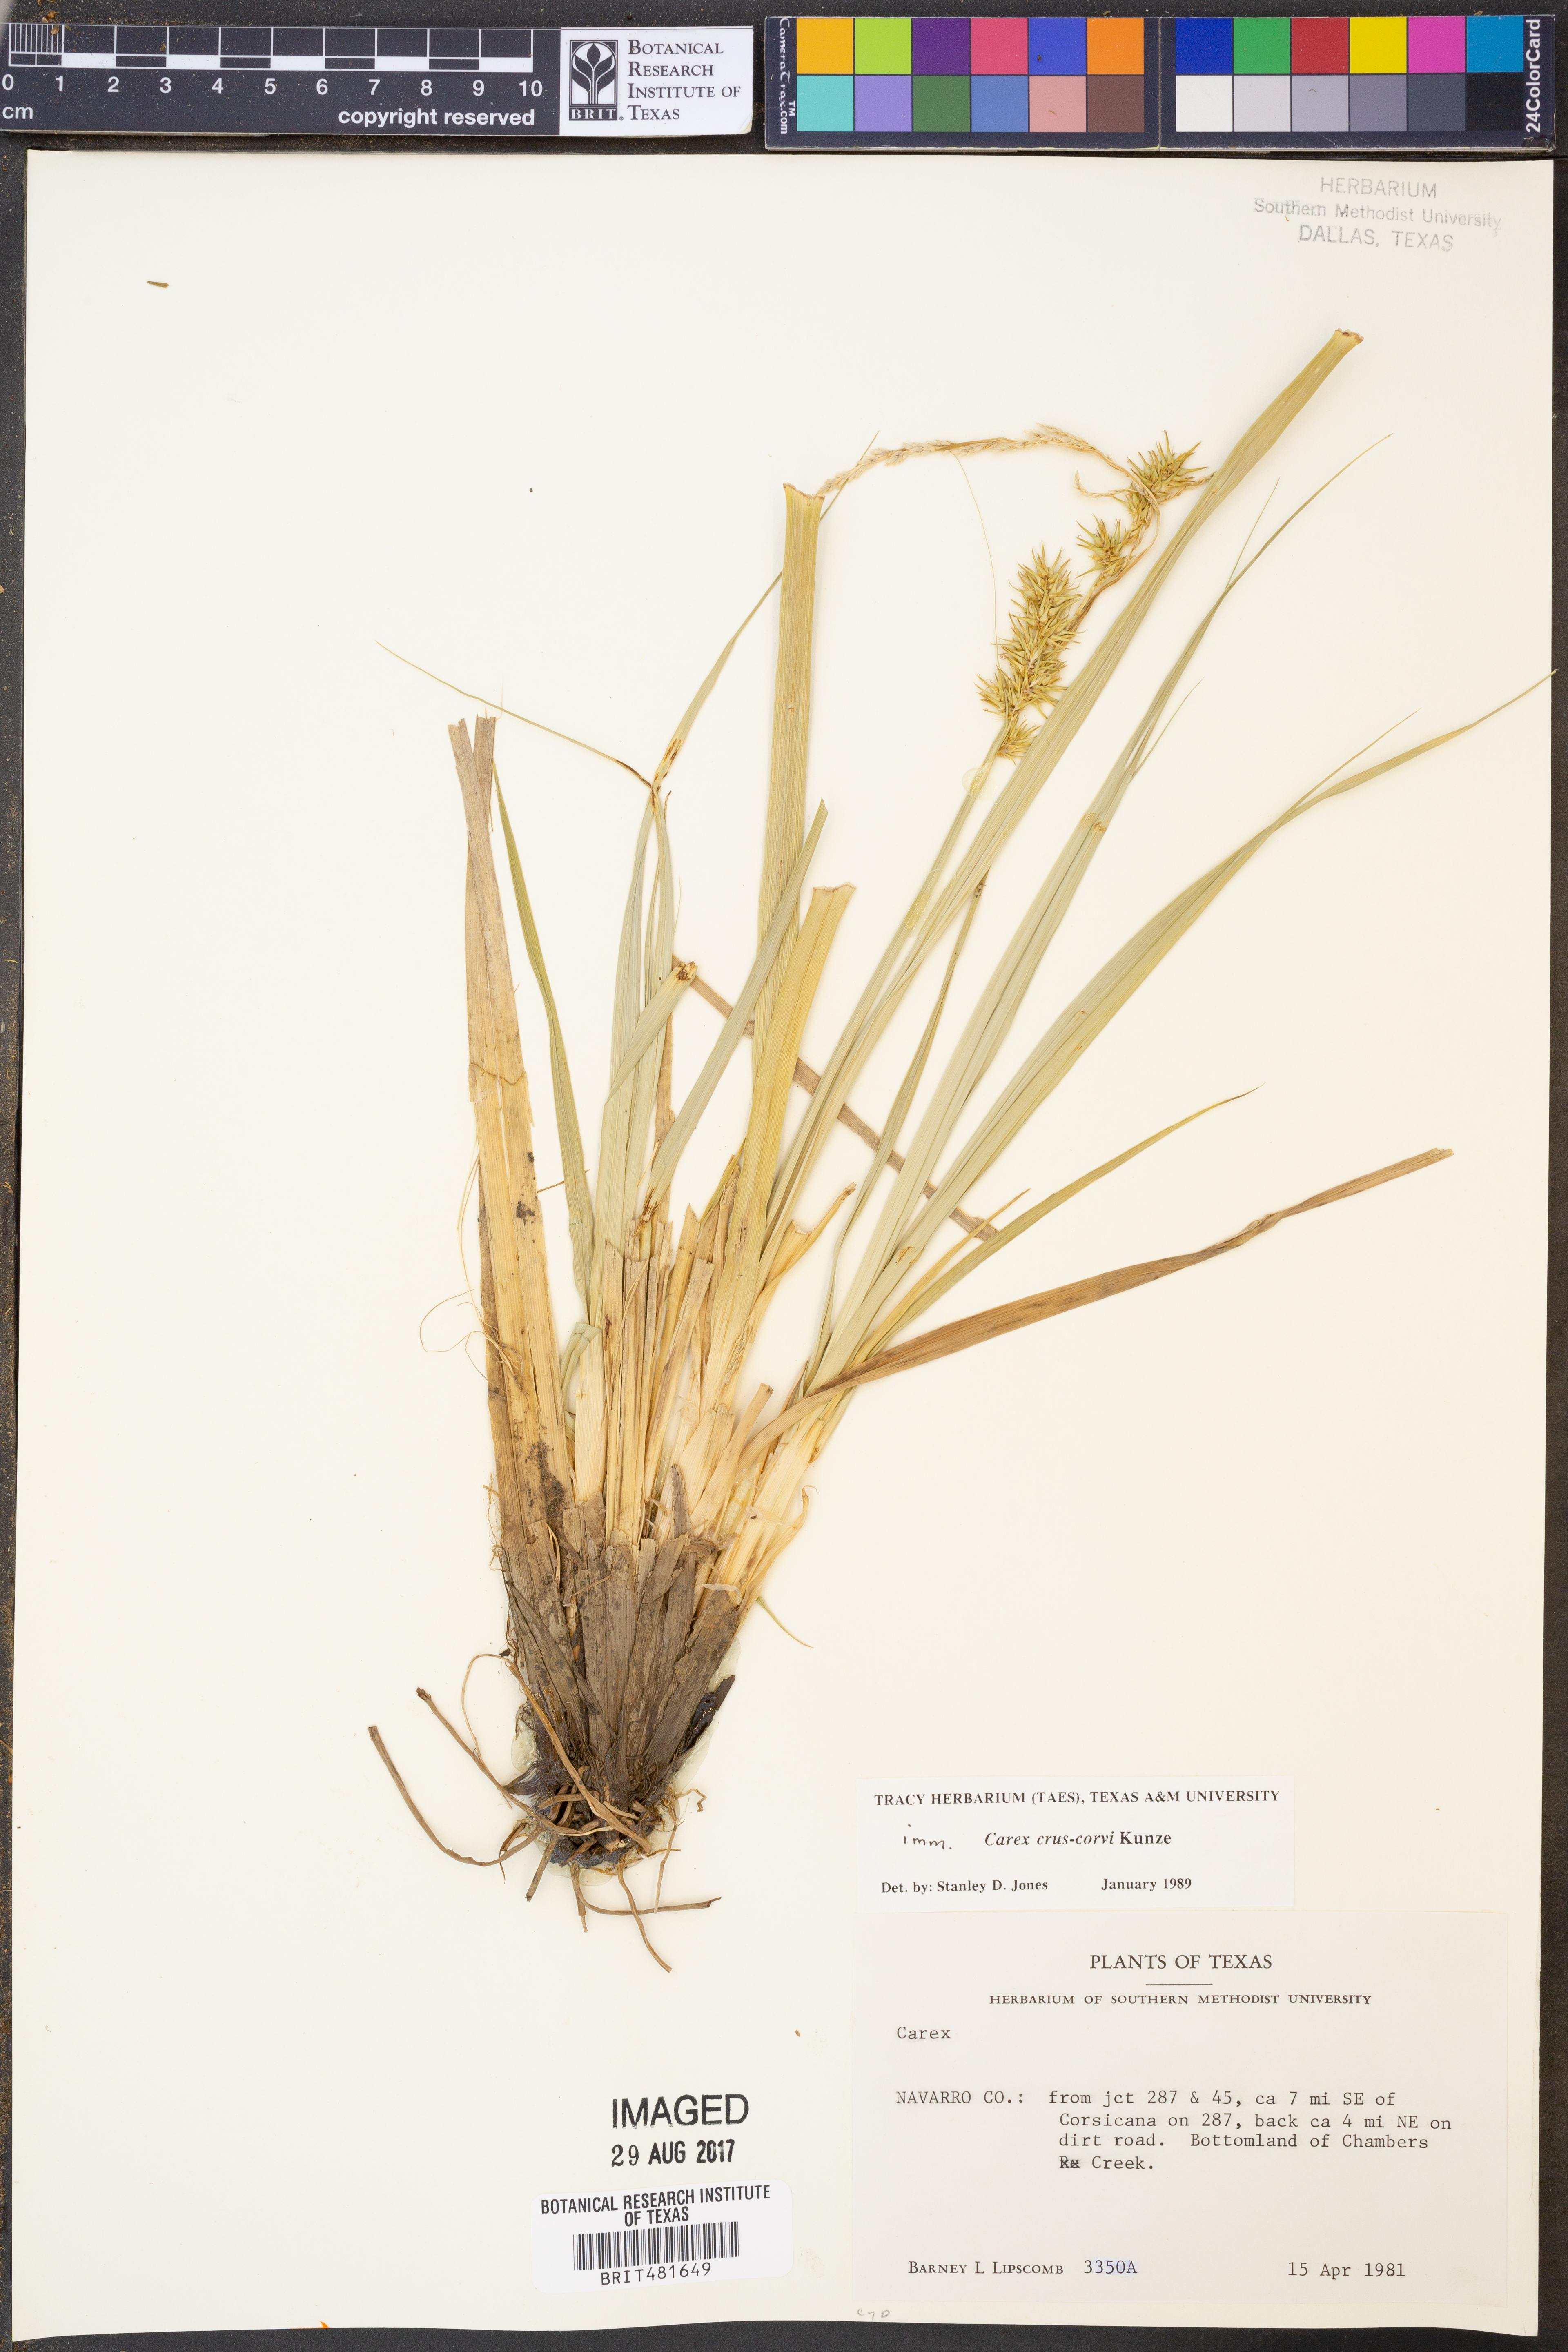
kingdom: Plantae
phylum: Tracheophyta
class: Liliopsida
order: Poales
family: Cyperaceae
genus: Carex
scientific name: Carex crus-corvi
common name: Crow-spur sedge
